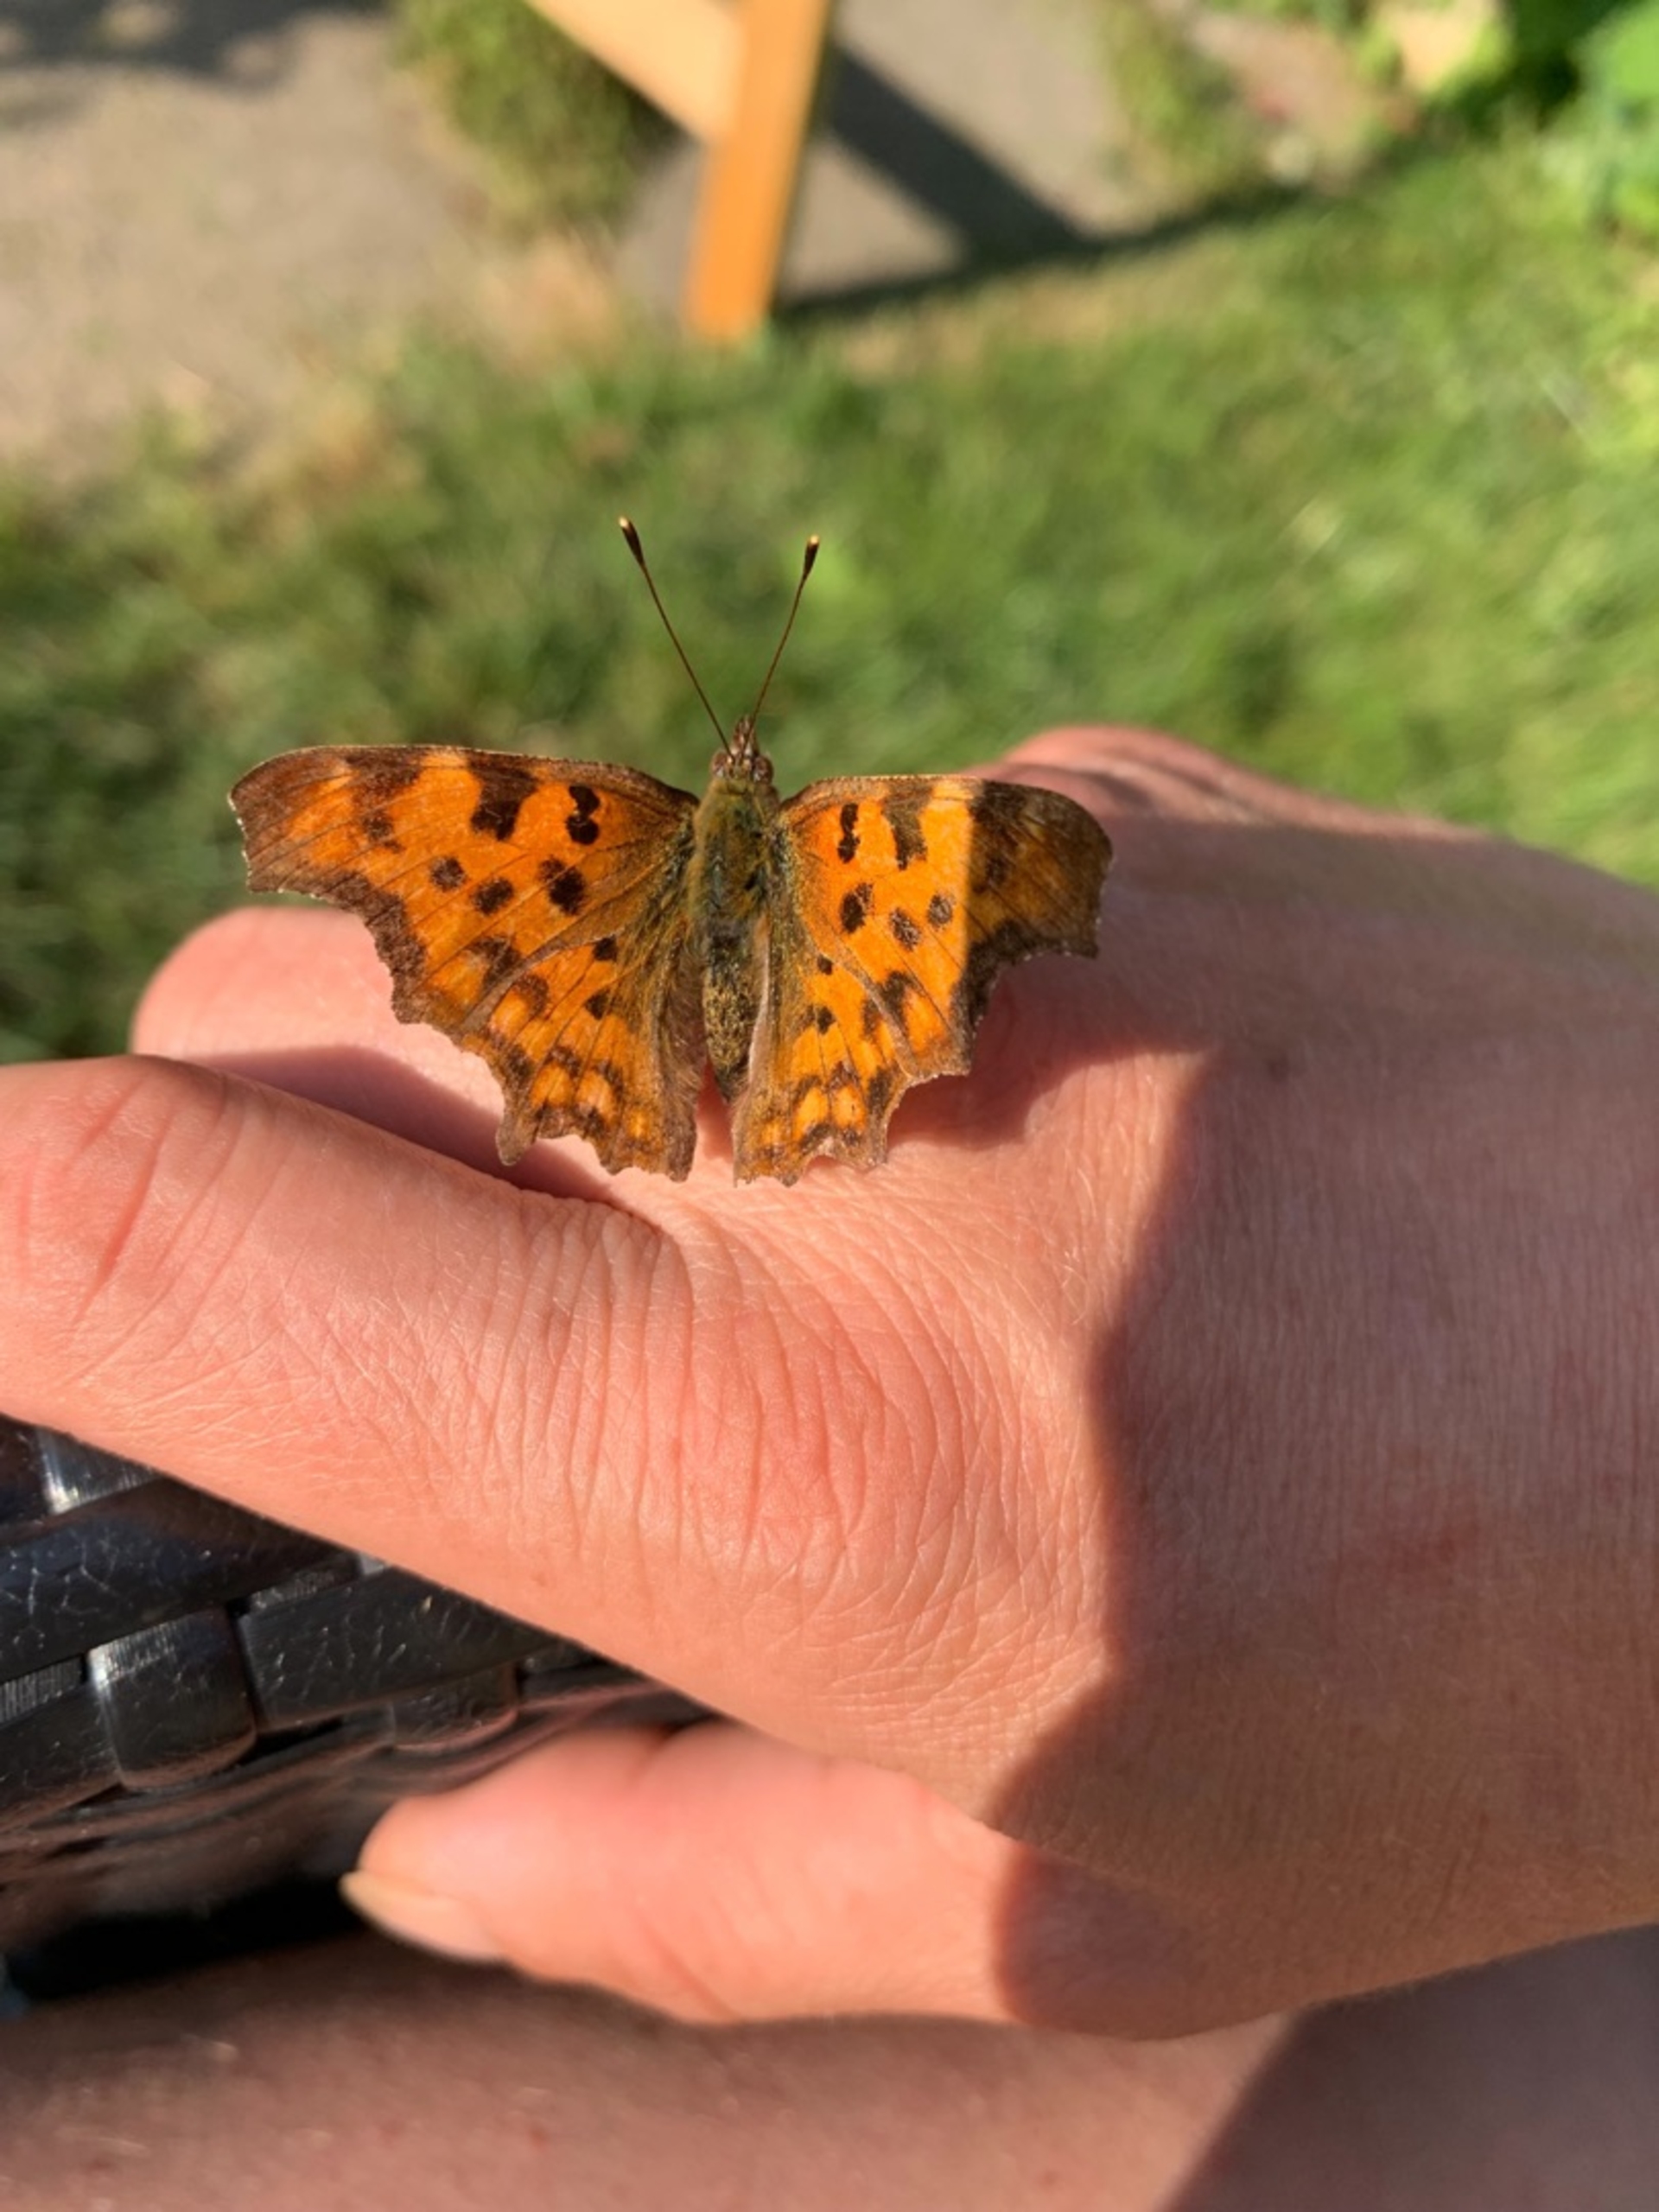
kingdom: Animalia
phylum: Arthropoda
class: Insecta
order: Lepidoptera
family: Nymphalidae
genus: Polygonia
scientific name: Polygonia c-album
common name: Det hvide C
